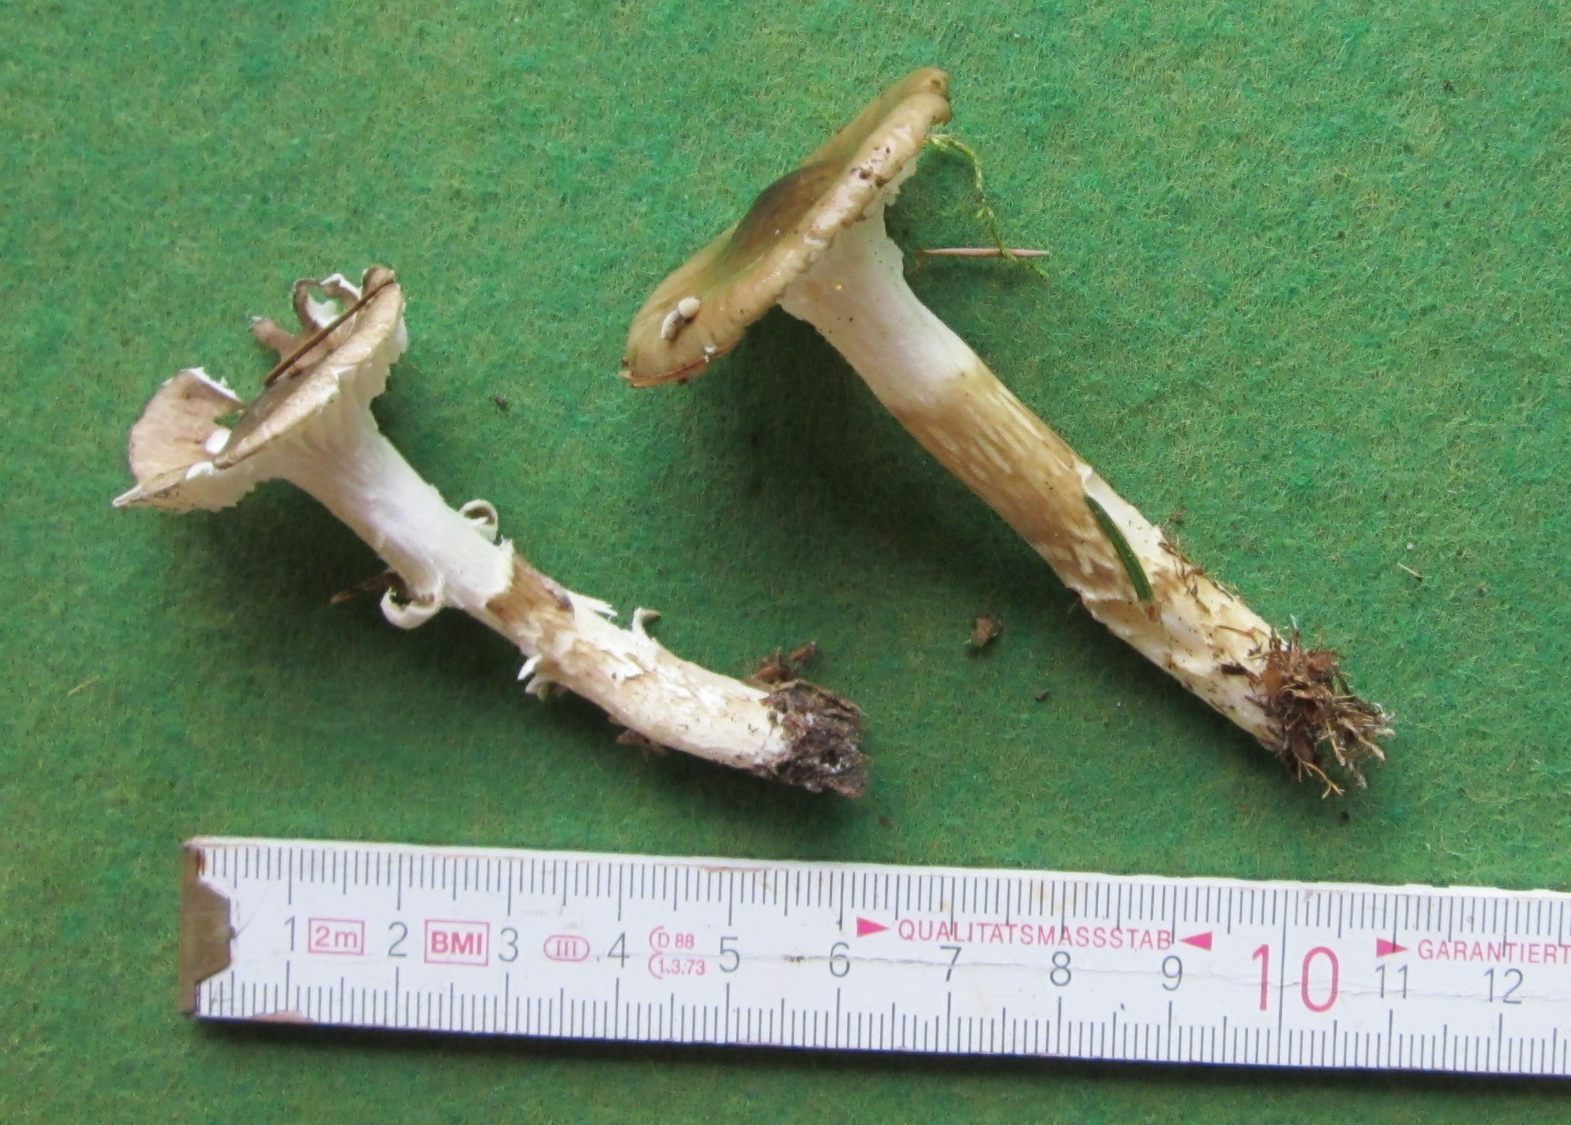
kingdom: Fungi
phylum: Basidiomycota
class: Agaricomycetes
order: Agaricales
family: Hygrophoraceae
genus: Hygrophorus
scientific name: Hygrophorus olivaceoalbus
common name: hvidbrun sneglehat
